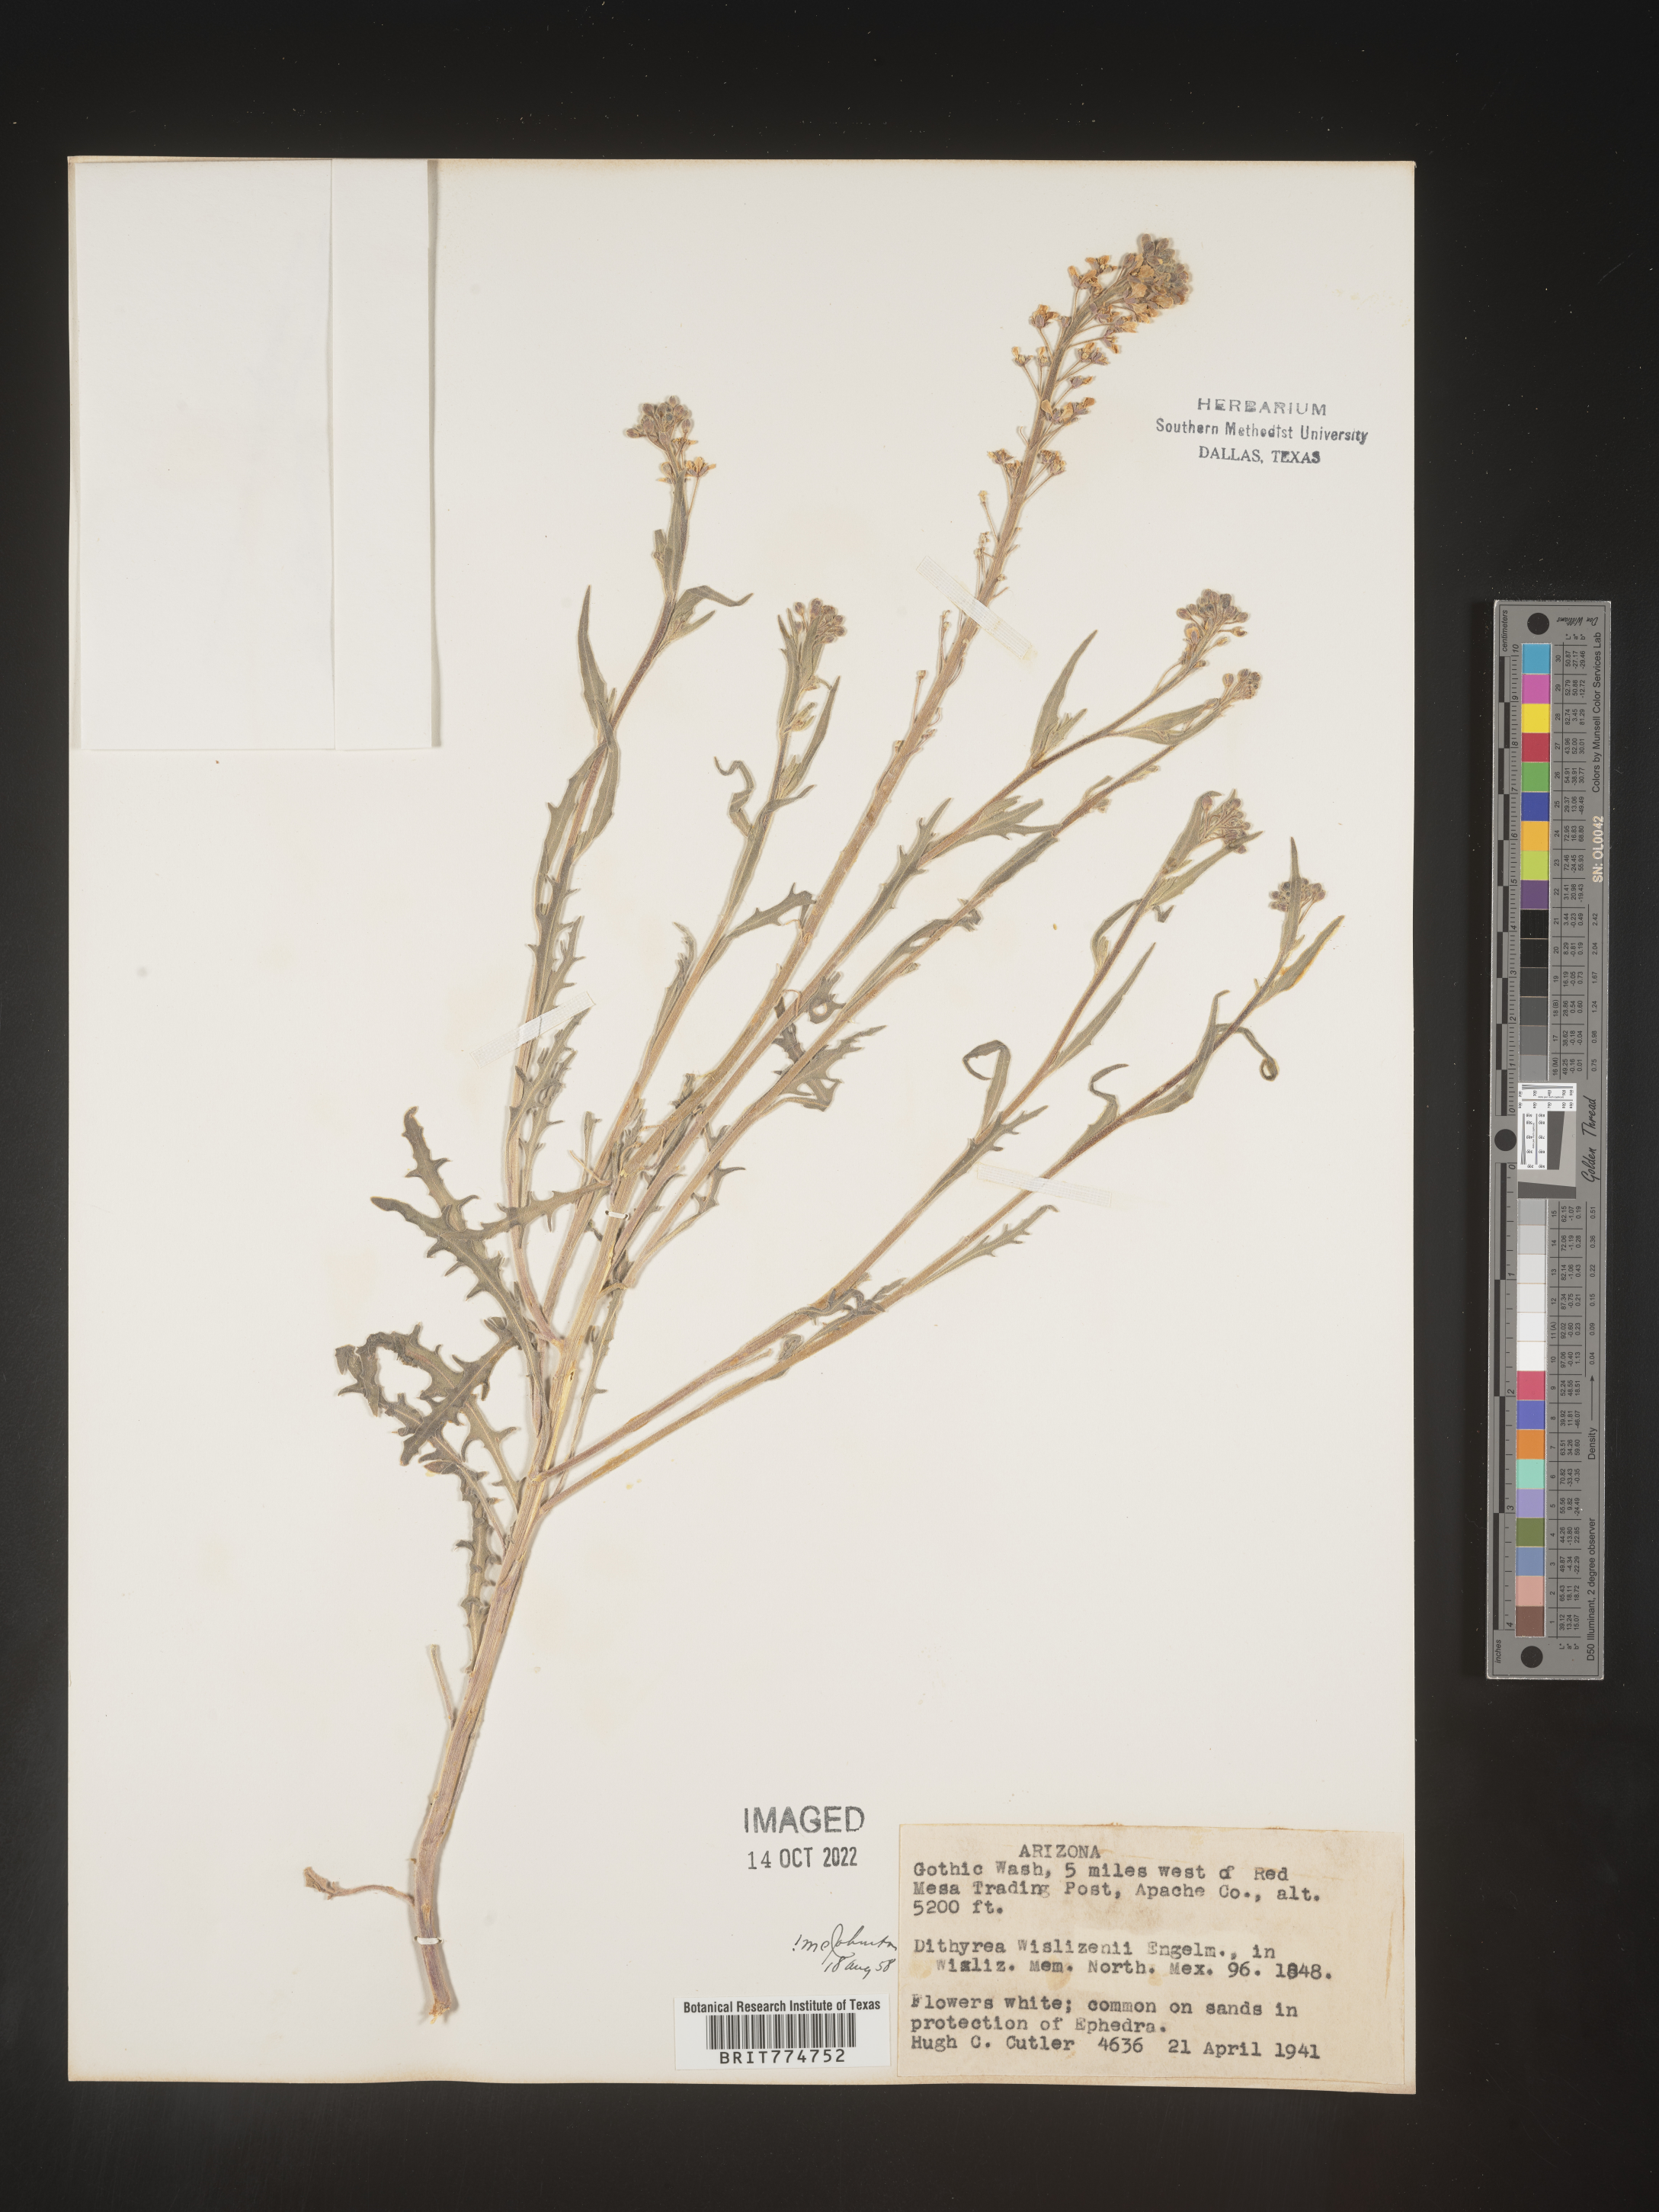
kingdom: Plantae
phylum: Tracheophyta
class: Magnoliopsida
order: Brassicales
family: Brassicaceae
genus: Dimorphocarpa
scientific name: Dimorphocarpa wislizenii
